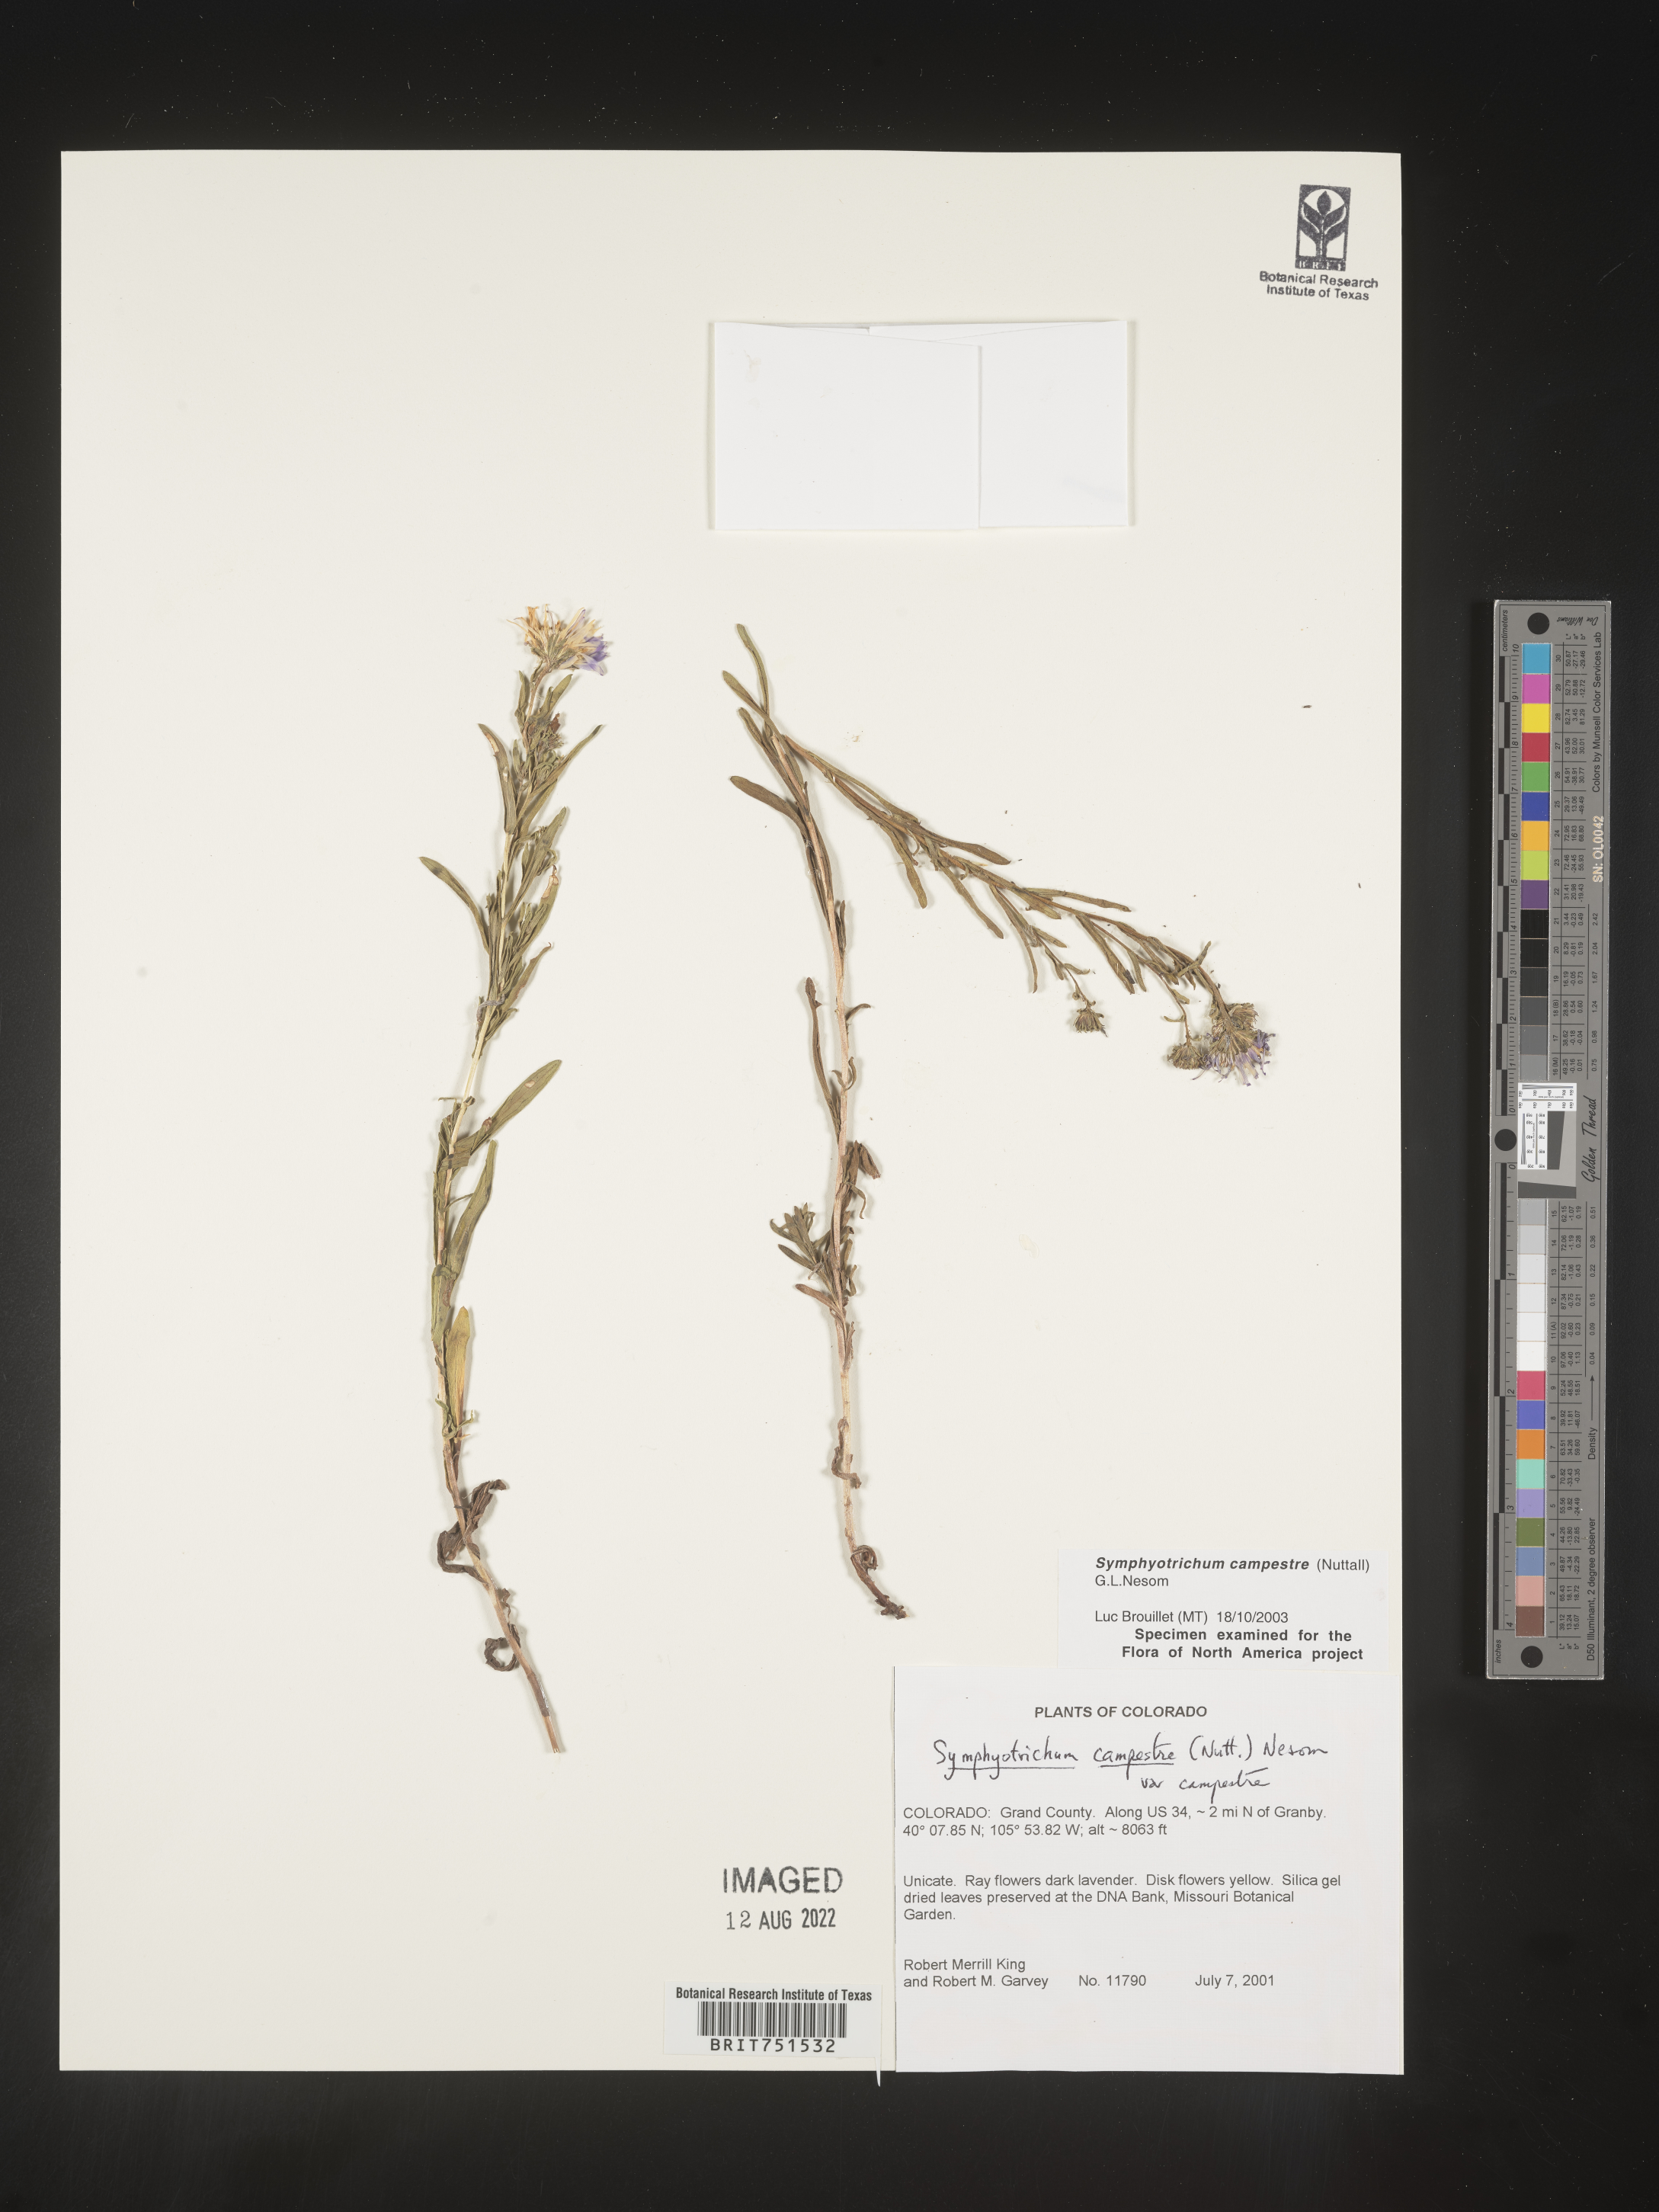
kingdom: Plantae
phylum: Tracheophyta
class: Magnoliopsida
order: Asterales
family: Asteraceae
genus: Symphyotrichum
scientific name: Symphyotrichum campestre
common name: Meadow aster
